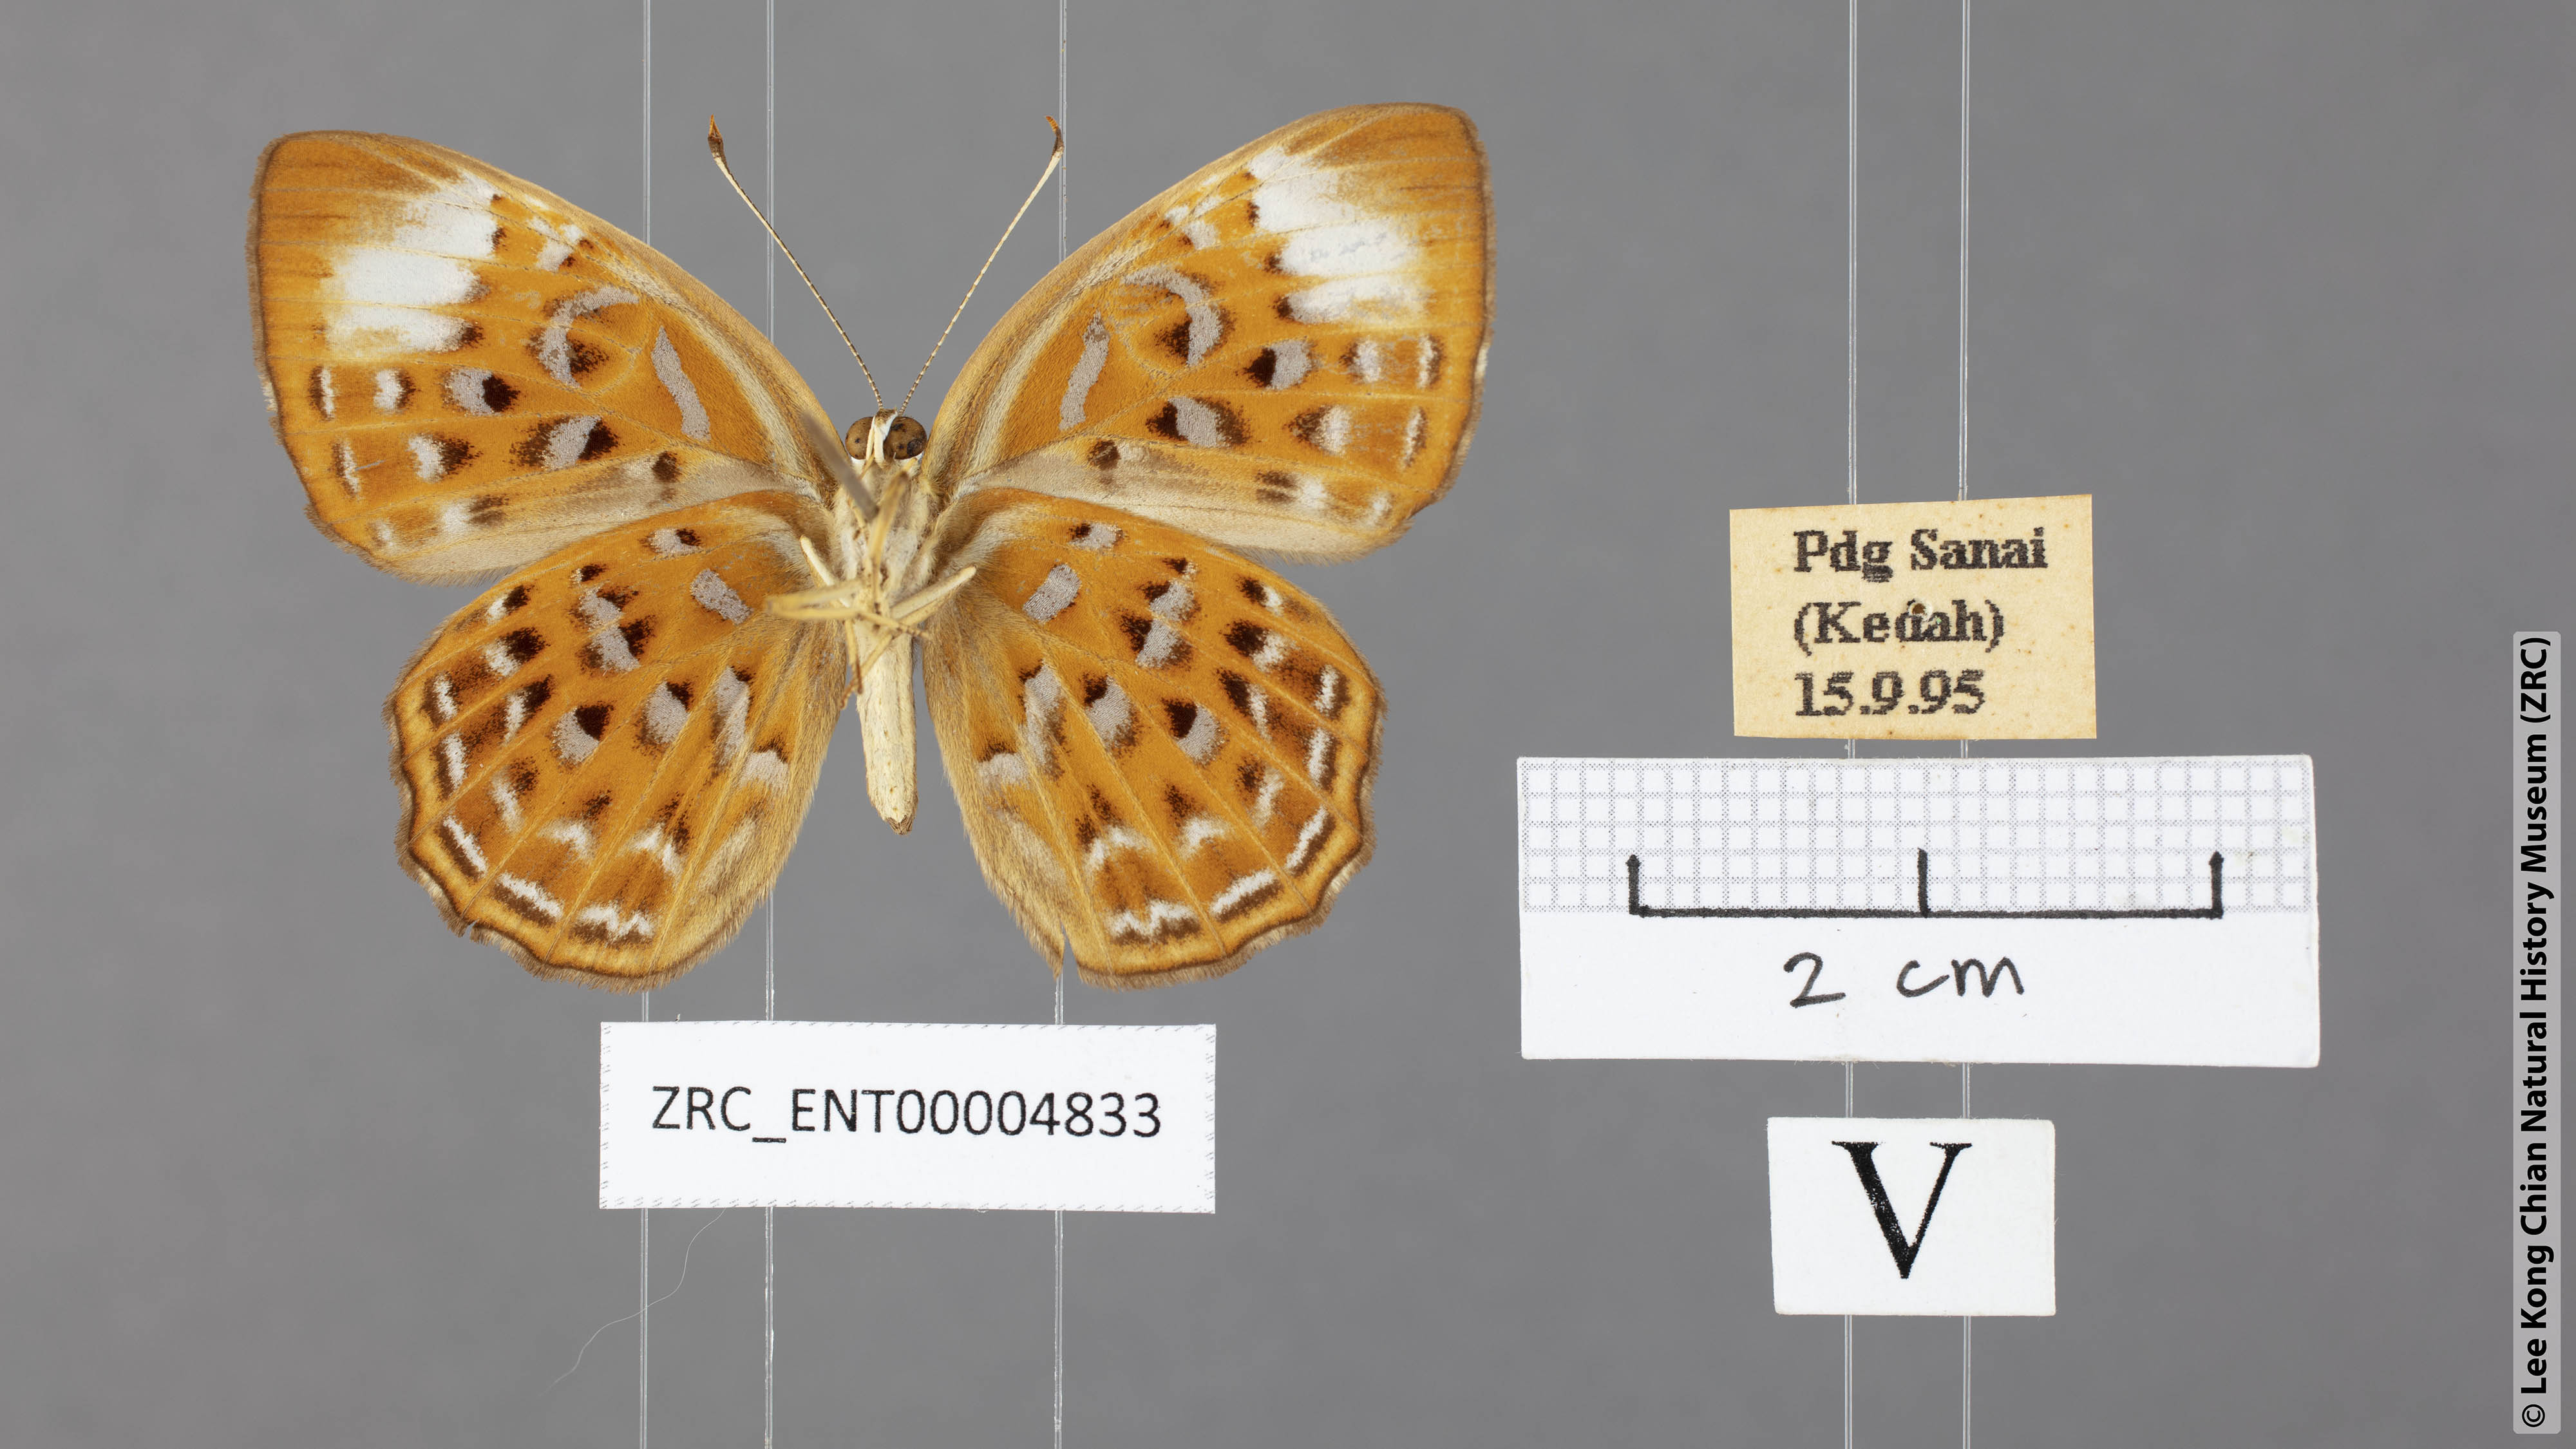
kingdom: Animalia
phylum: Arthropoda
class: Insecta
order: Lepidoptera
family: Erebidae
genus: Dysschema
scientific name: Dysschema
